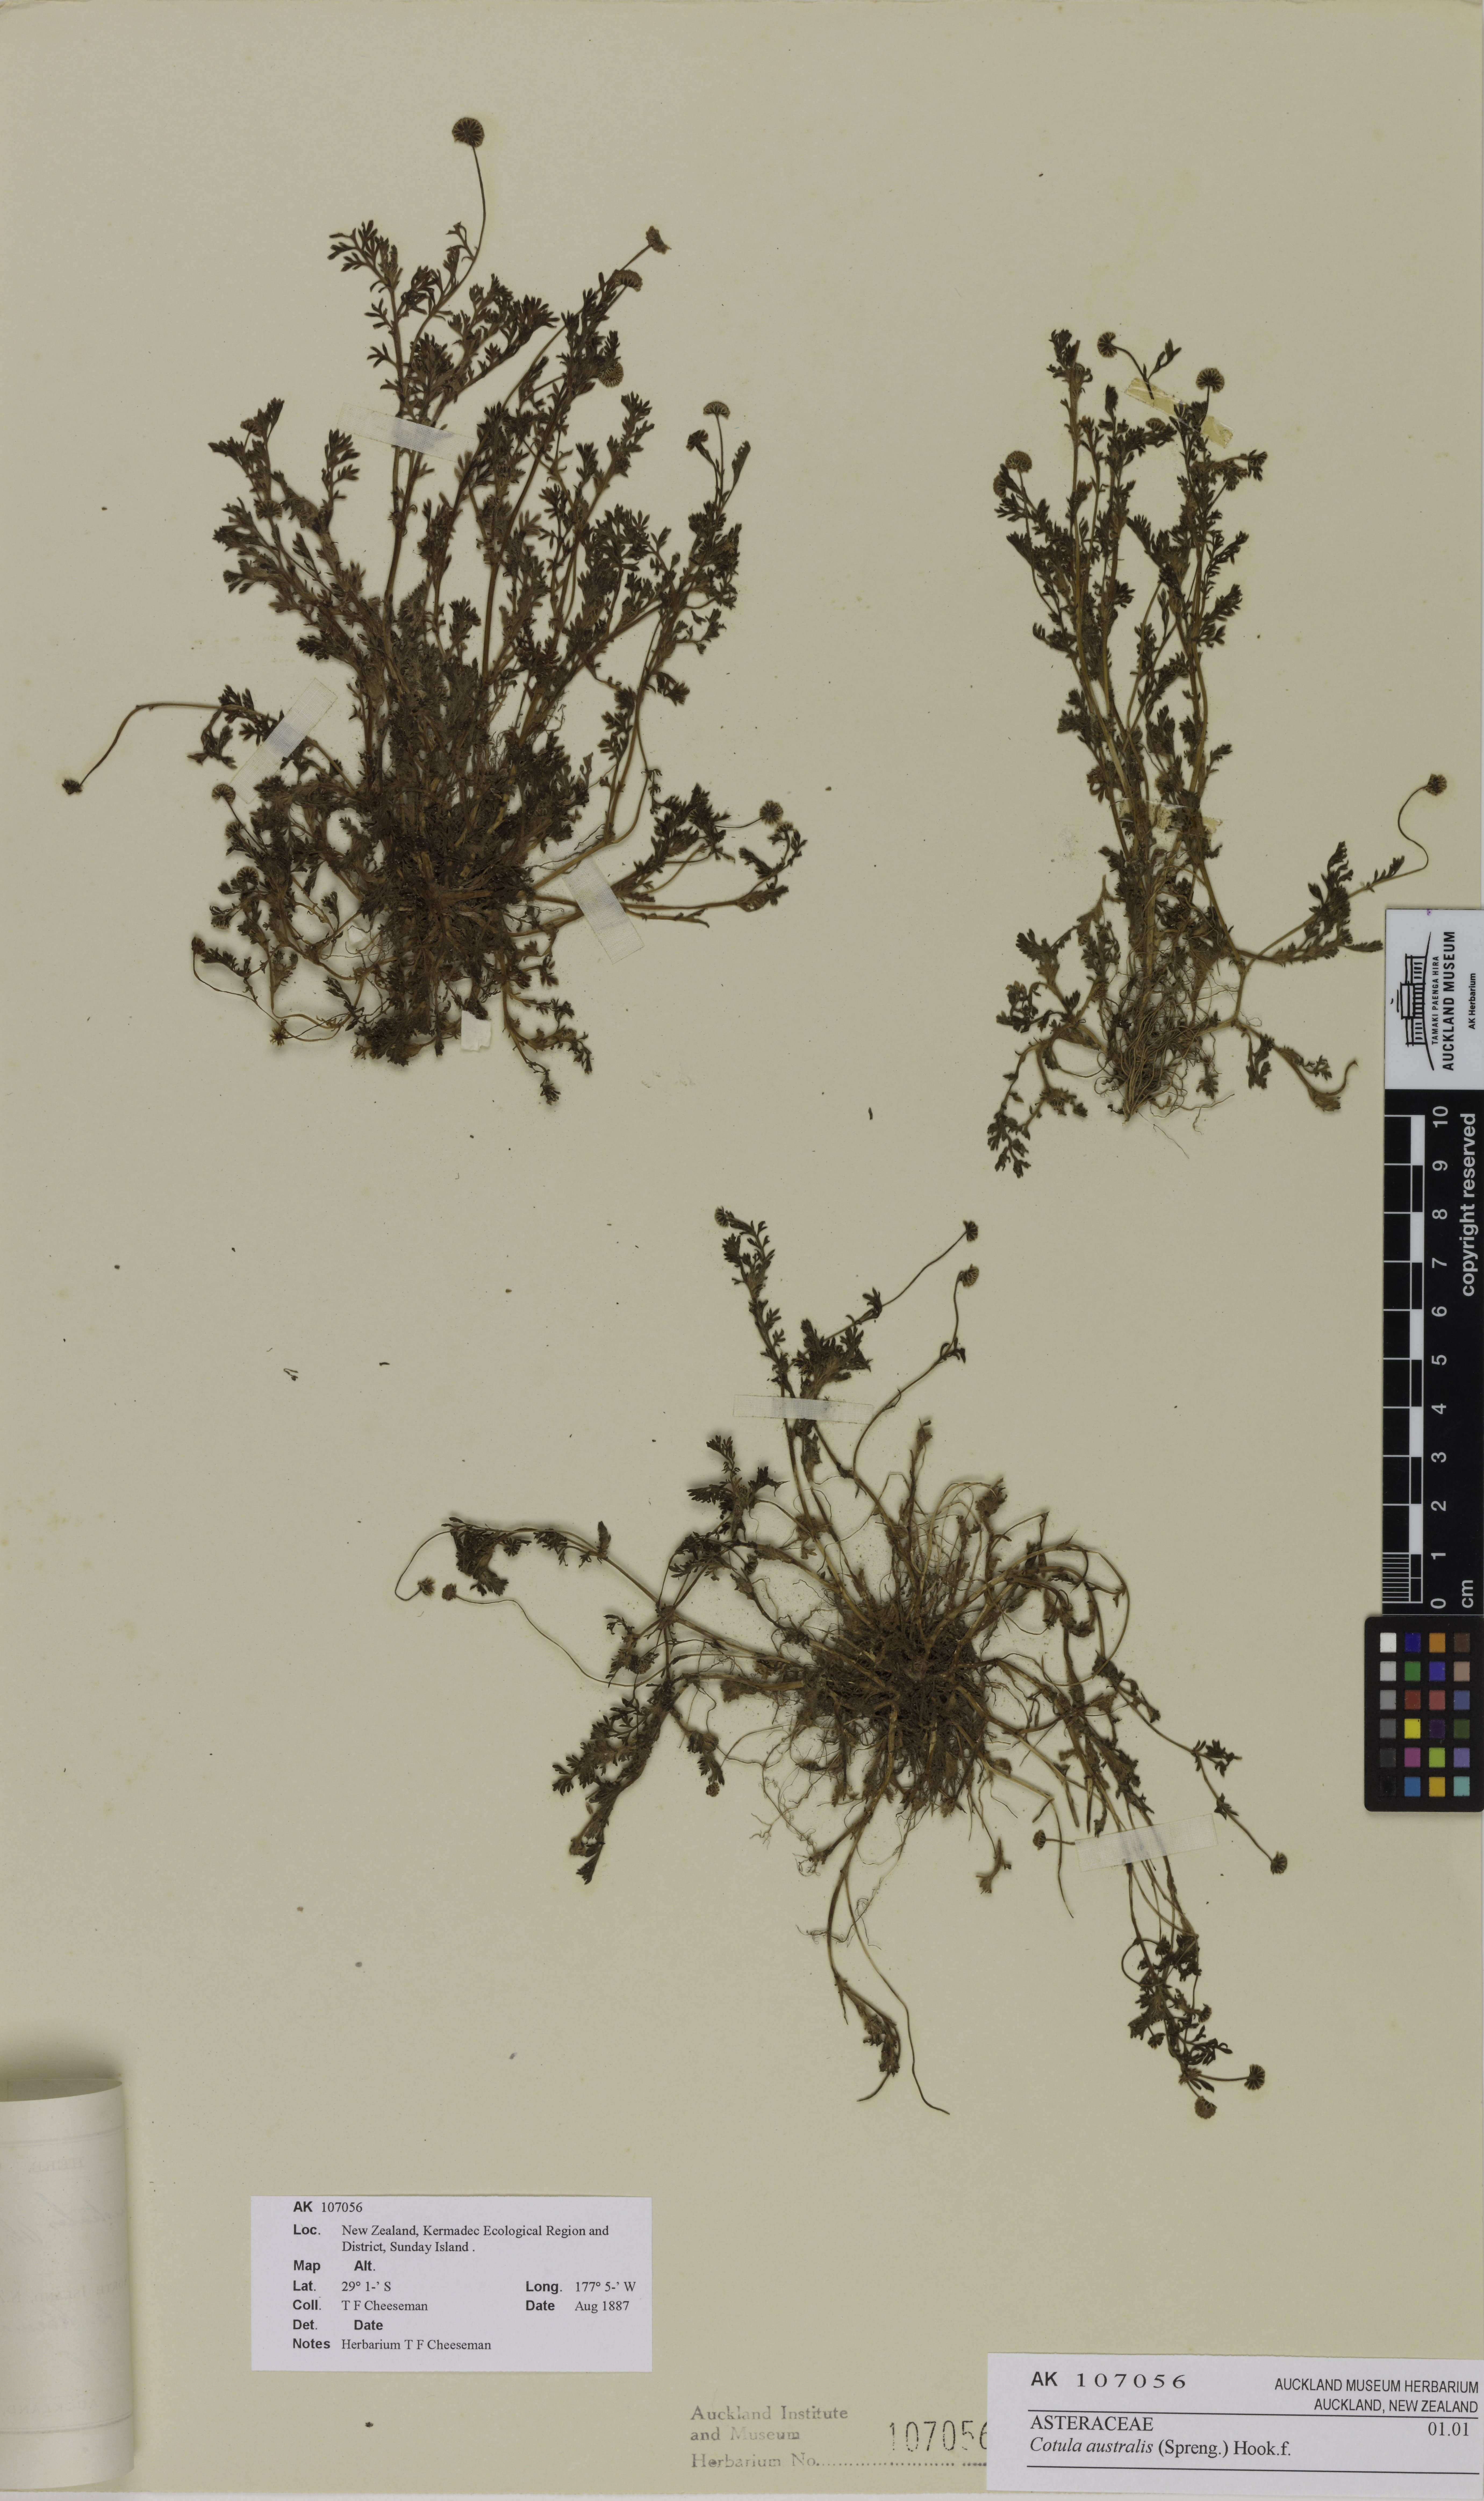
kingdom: Plantae
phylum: Tracheophyta
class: Magnoliopsida
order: Asterales
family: Asteraceae
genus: Cotula
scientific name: Cotula australis
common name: Australian waterbuttons
